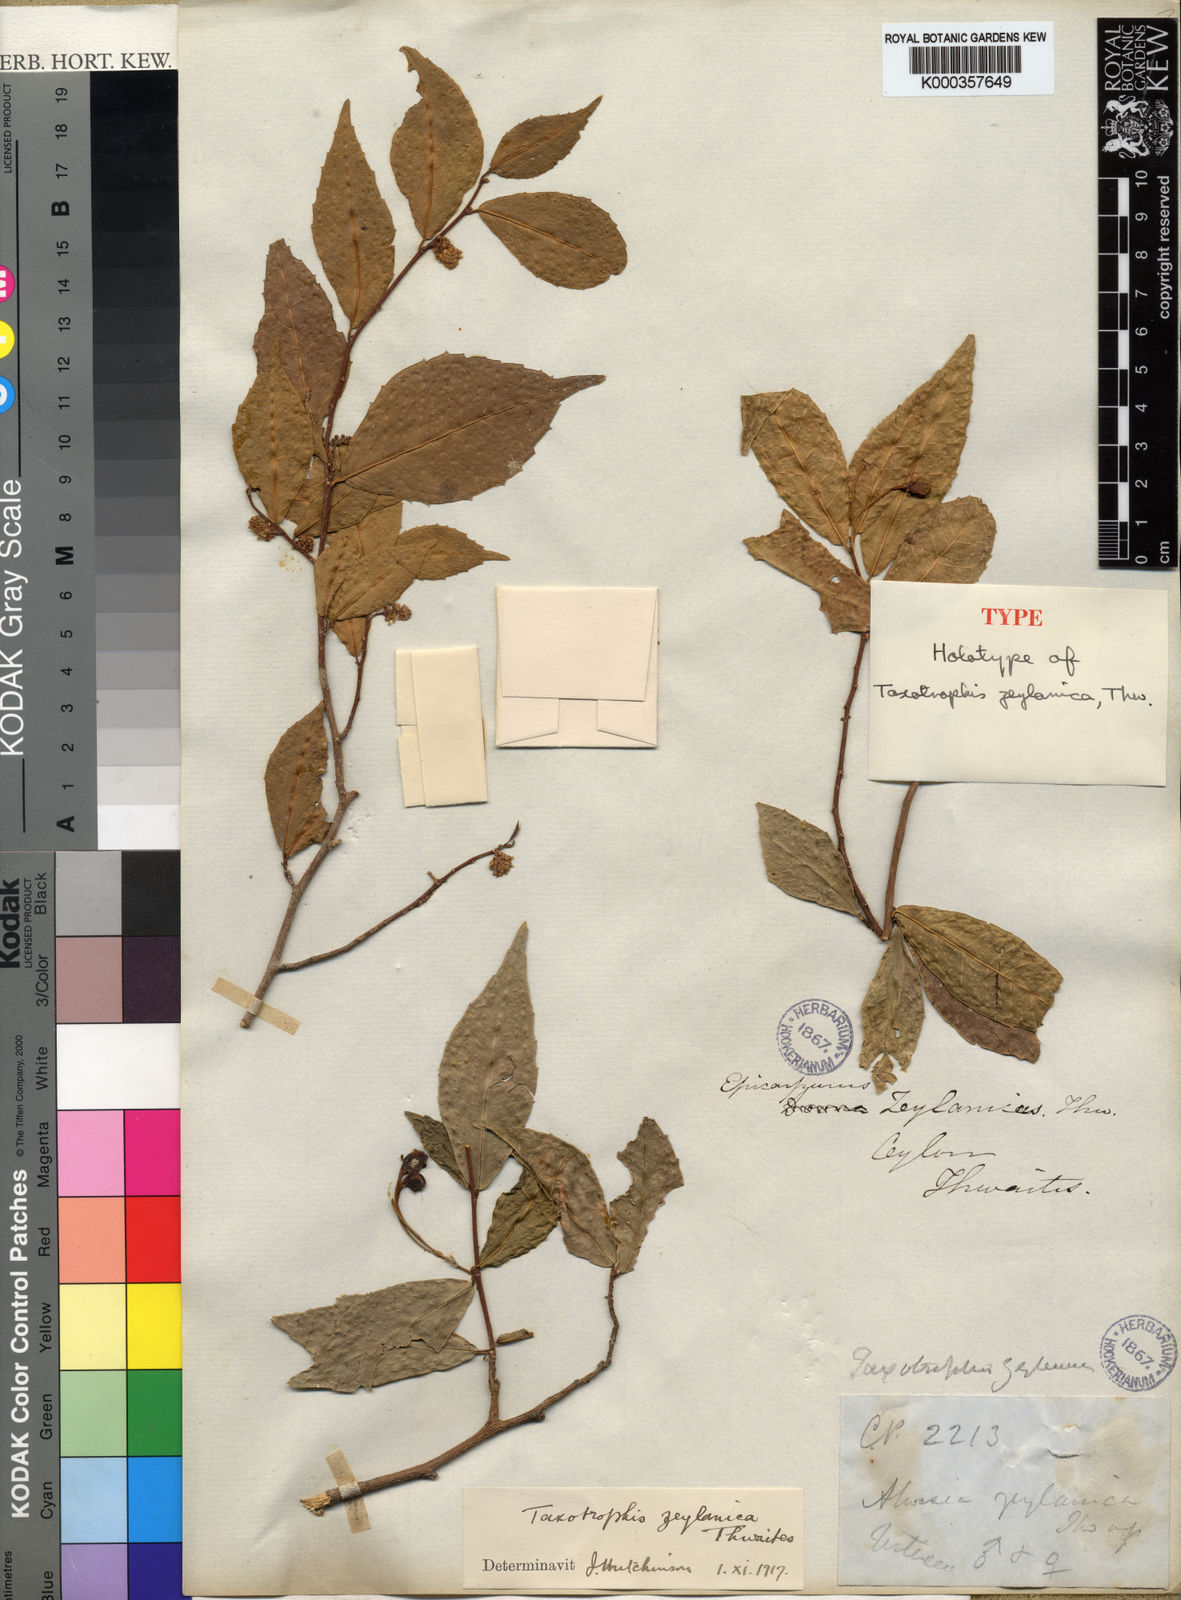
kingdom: Plantae
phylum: Tracheophyta
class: Magnoliopsida
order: Rosales
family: Moraceae
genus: Taxotrophis
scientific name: Taxotrophis zeylanica
